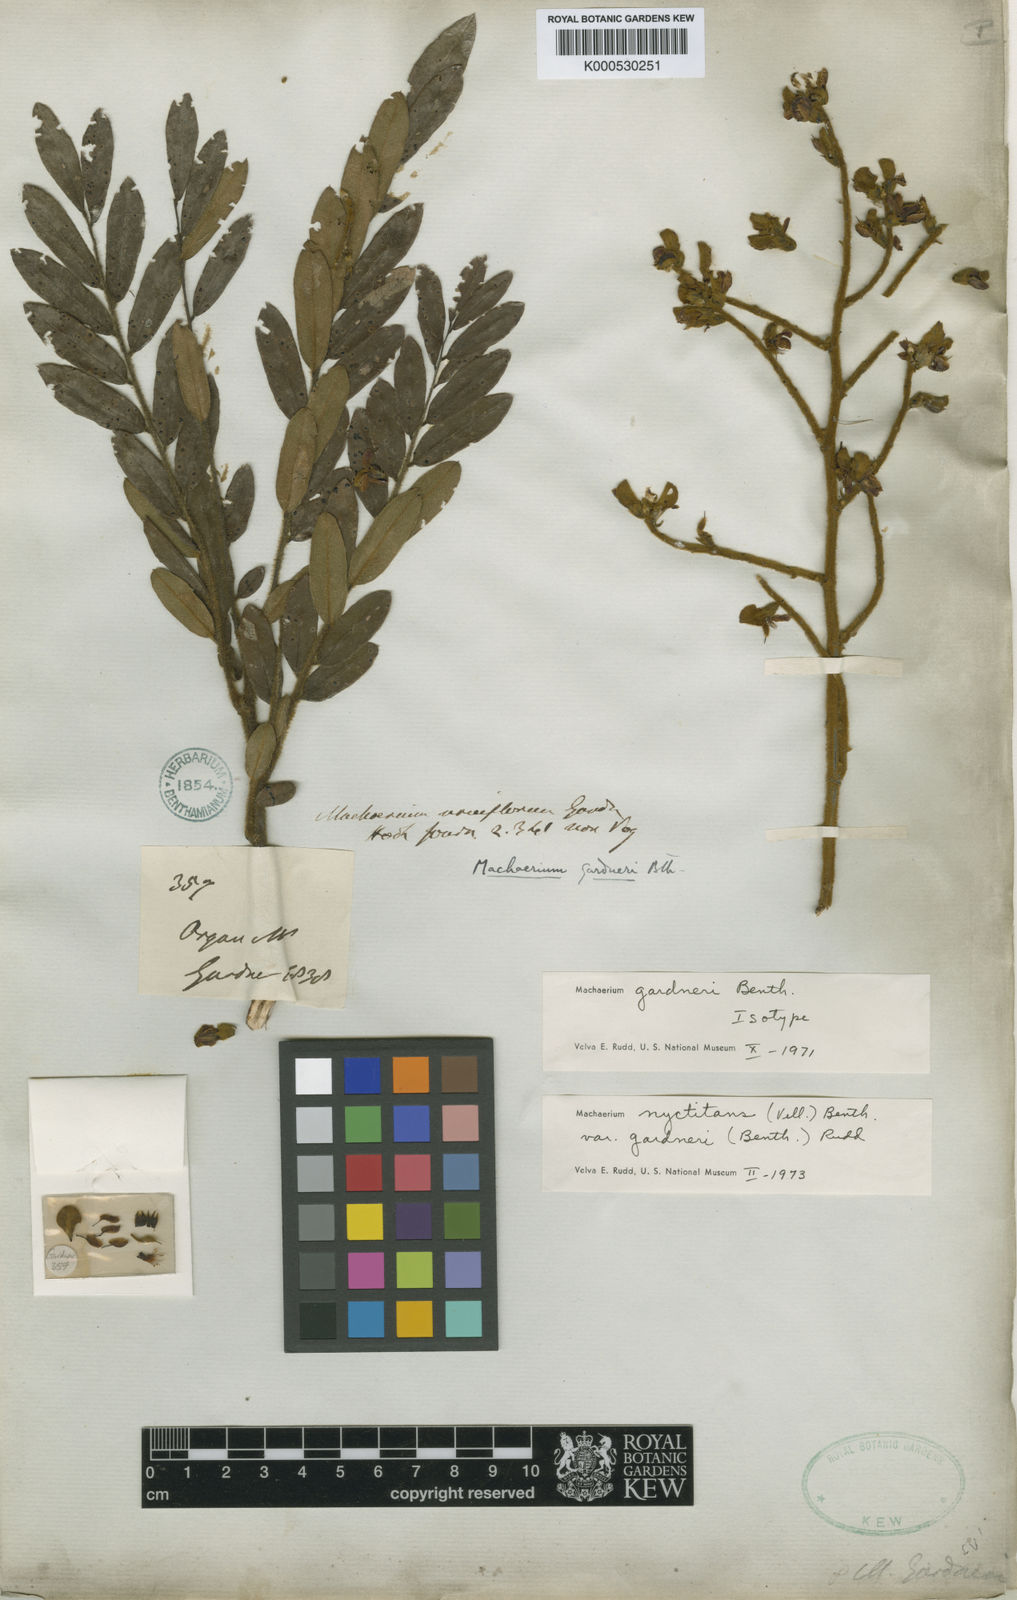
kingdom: Plantae
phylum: Tracheophyta
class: Magnoliopsida
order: Fabales
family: Fabaceae
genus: Machaerium
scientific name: Machaerium nyctitans
